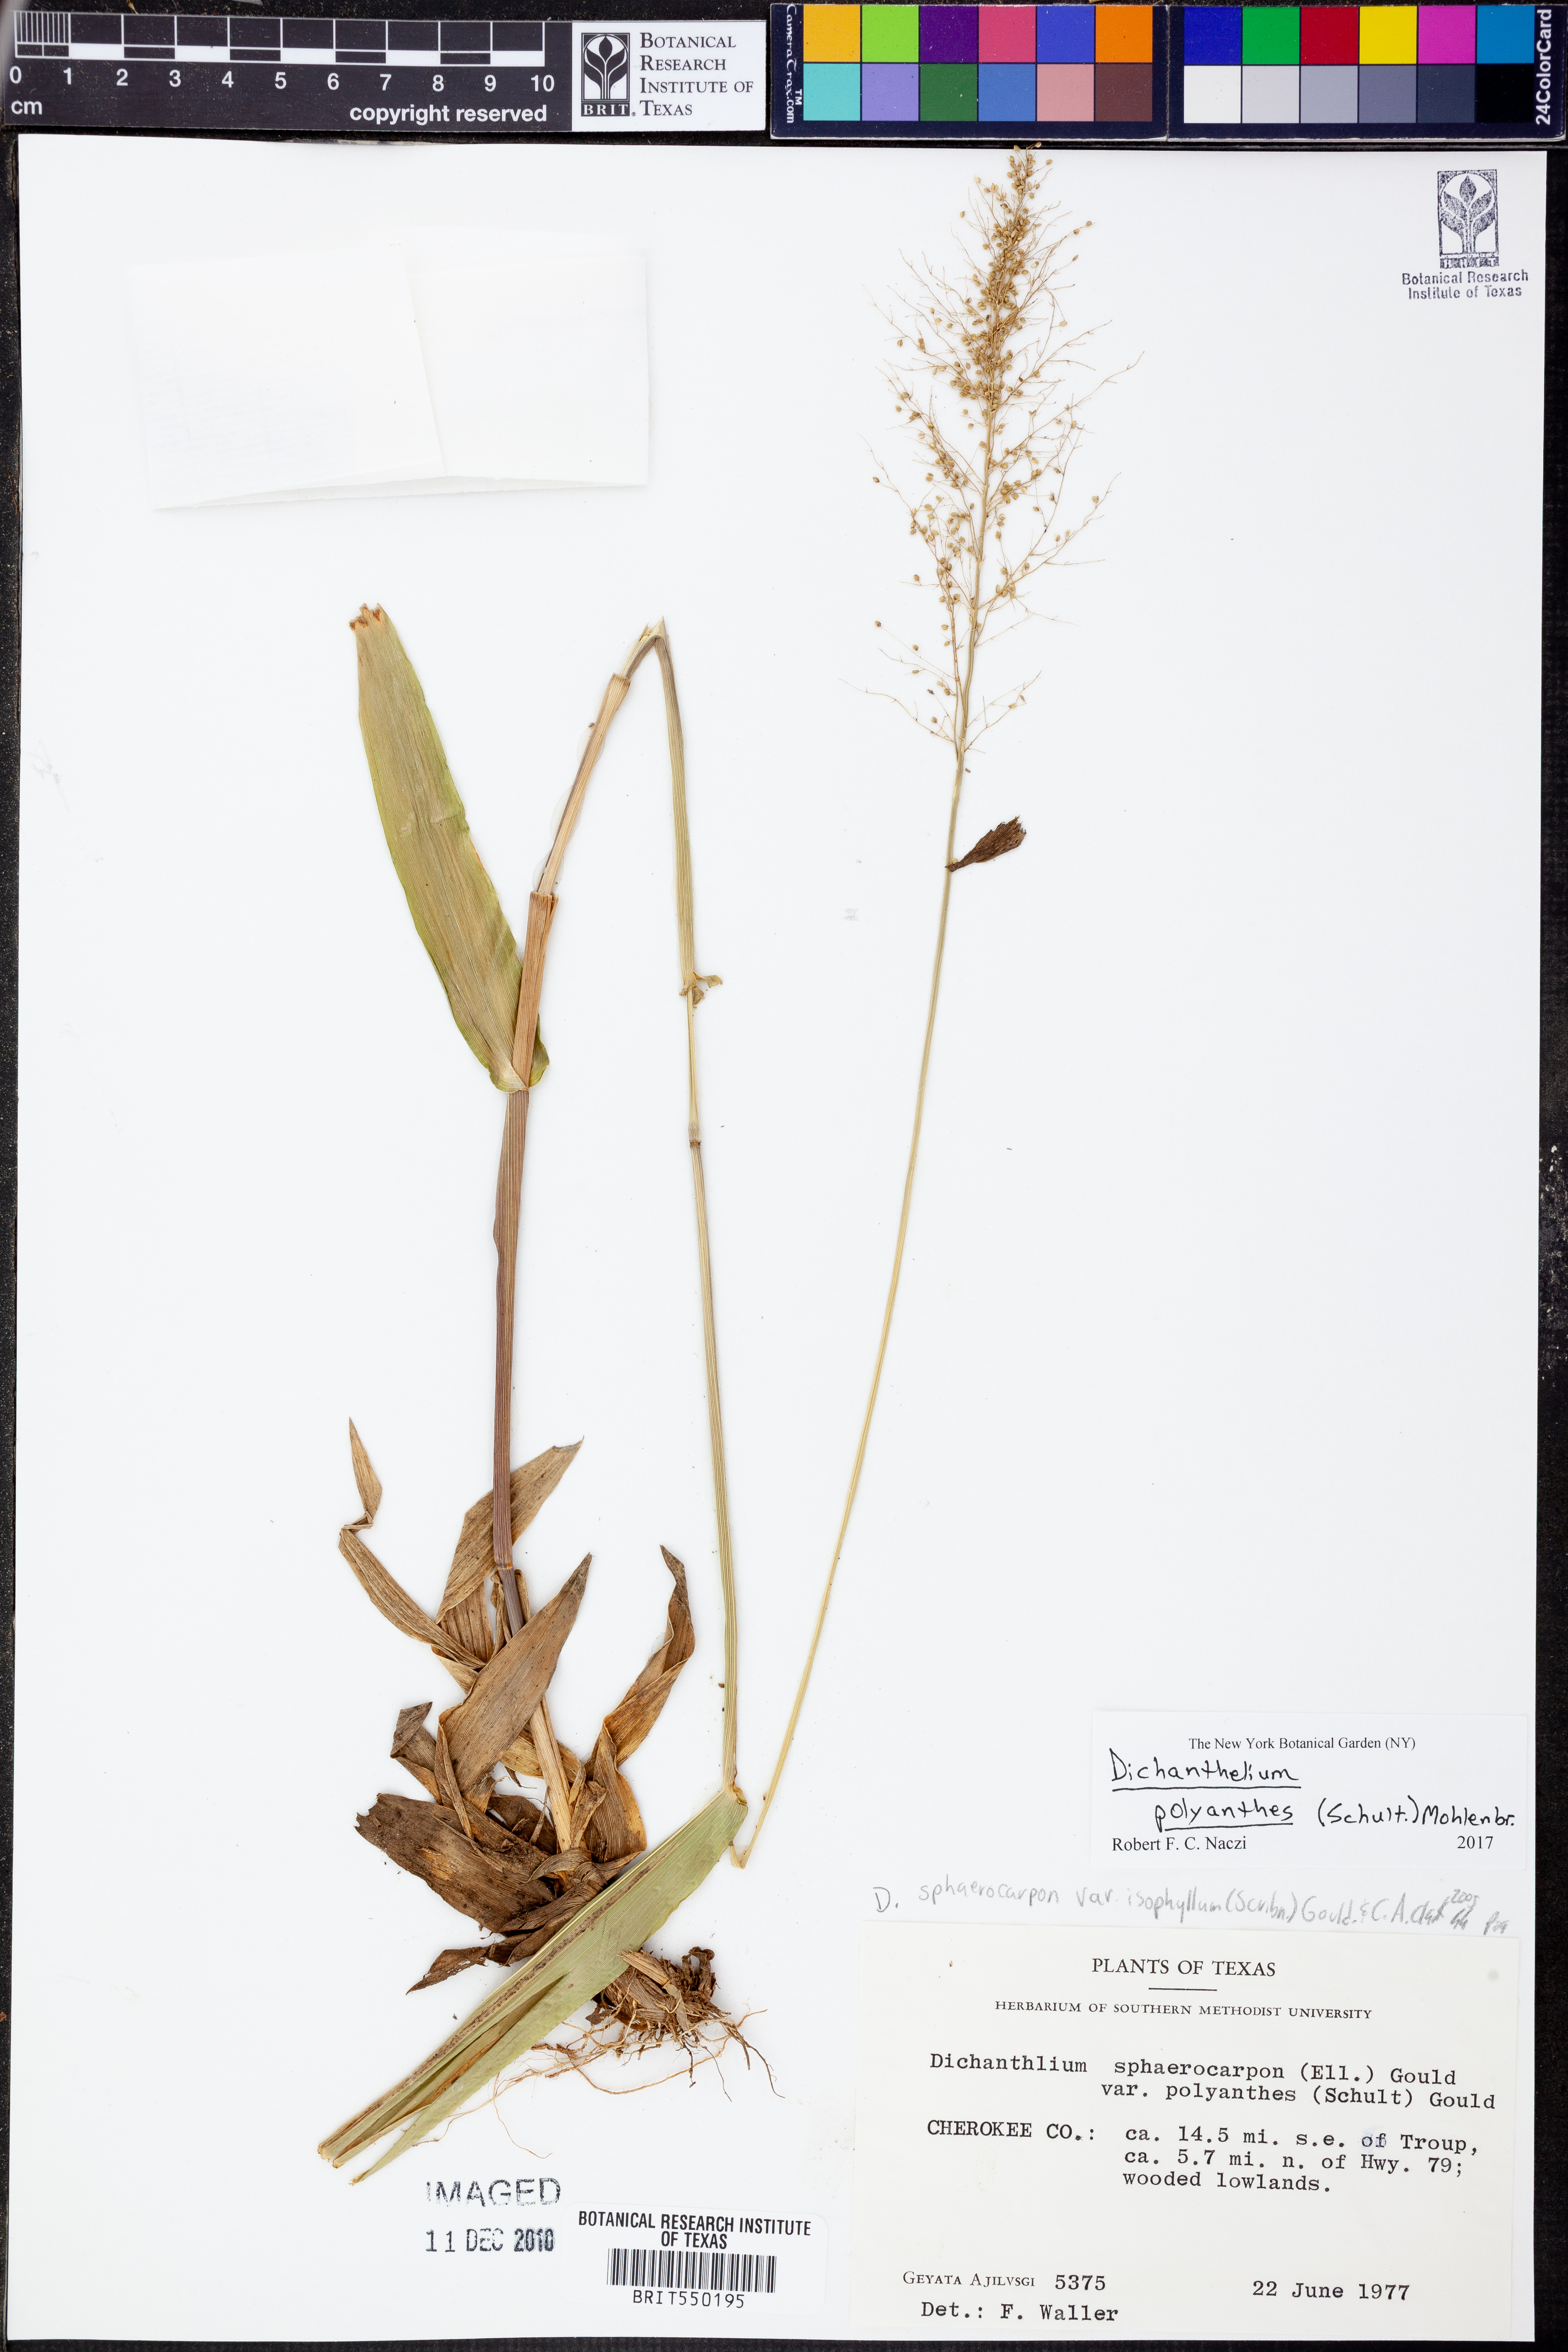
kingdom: Plantae
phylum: Tracheophyta
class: Liliopsida
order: Poales
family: Poaceae
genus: Dichanthelium
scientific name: Dichanthelium polyanthes
